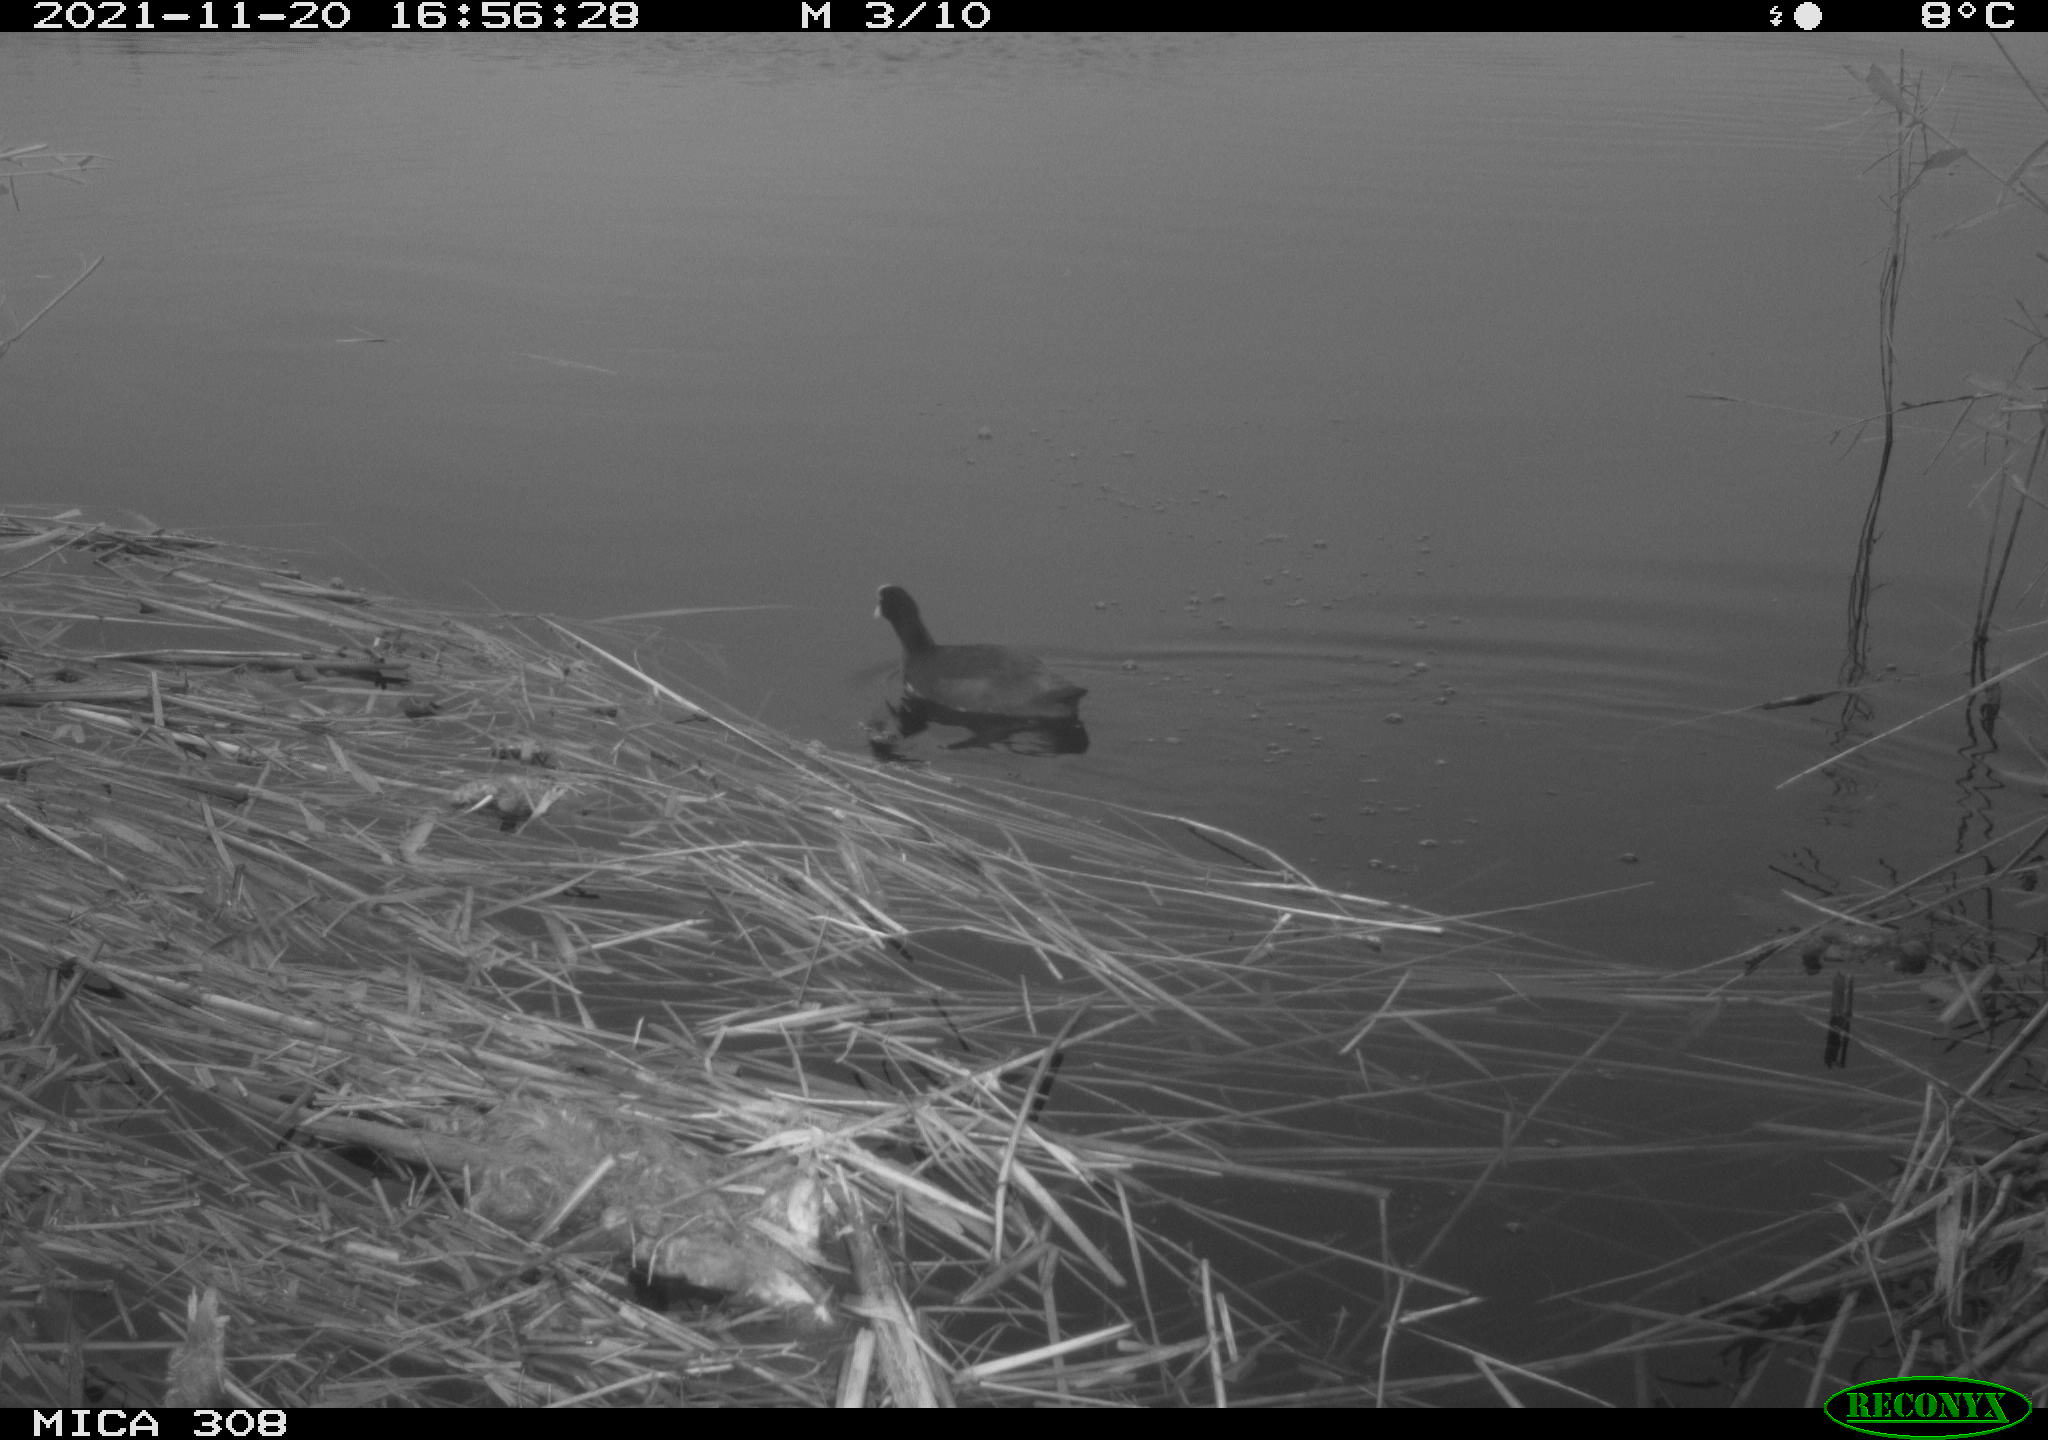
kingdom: Animalia
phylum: Chordata
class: Aves
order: Gruiformes
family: Rallidae
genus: Fulica
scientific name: Fulica atra
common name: Eurasian coot
